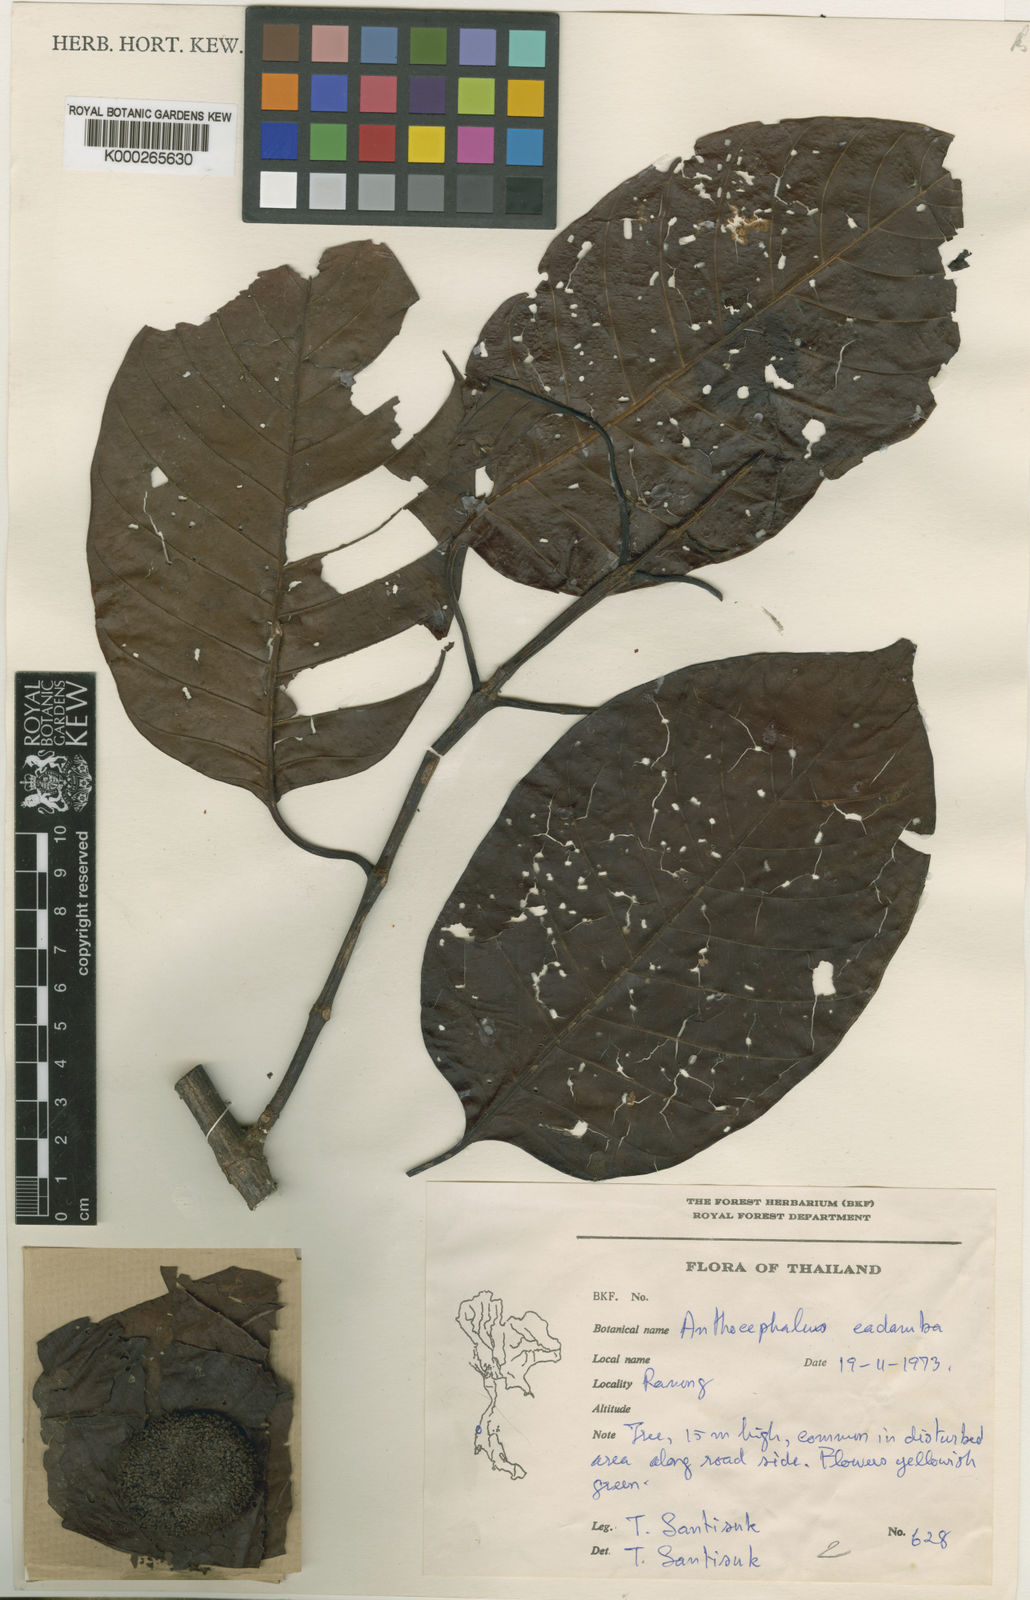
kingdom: Plantae
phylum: Tracheophyta
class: Magnoliopsida
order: Gentianales
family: Rubiaceae
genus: Neolamarckia
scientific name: Neolamarckia cadamba
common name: Leichhardt-pine
